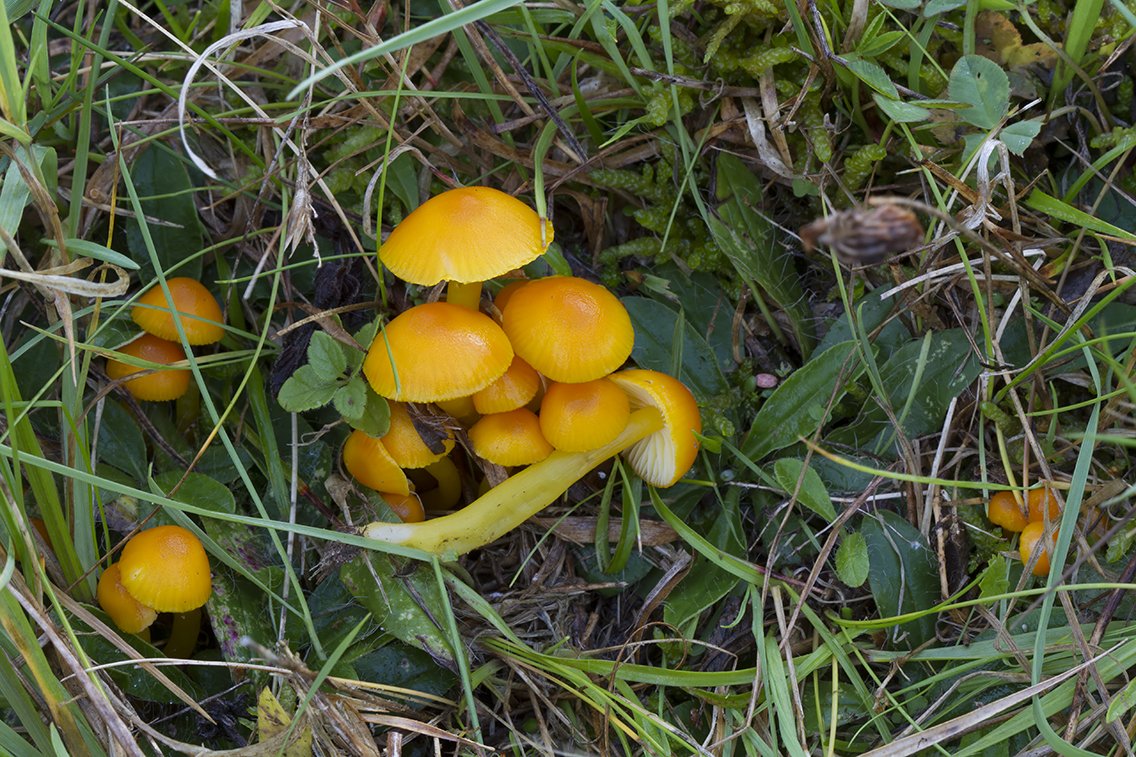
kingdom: Fungi
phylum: Basidiomycota
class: Agaricomycetes
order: Agaricales
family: Hygrophoraceae
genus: Hygrocybe
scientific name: Hygrocybe ceracea
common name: voksgul vokshat
